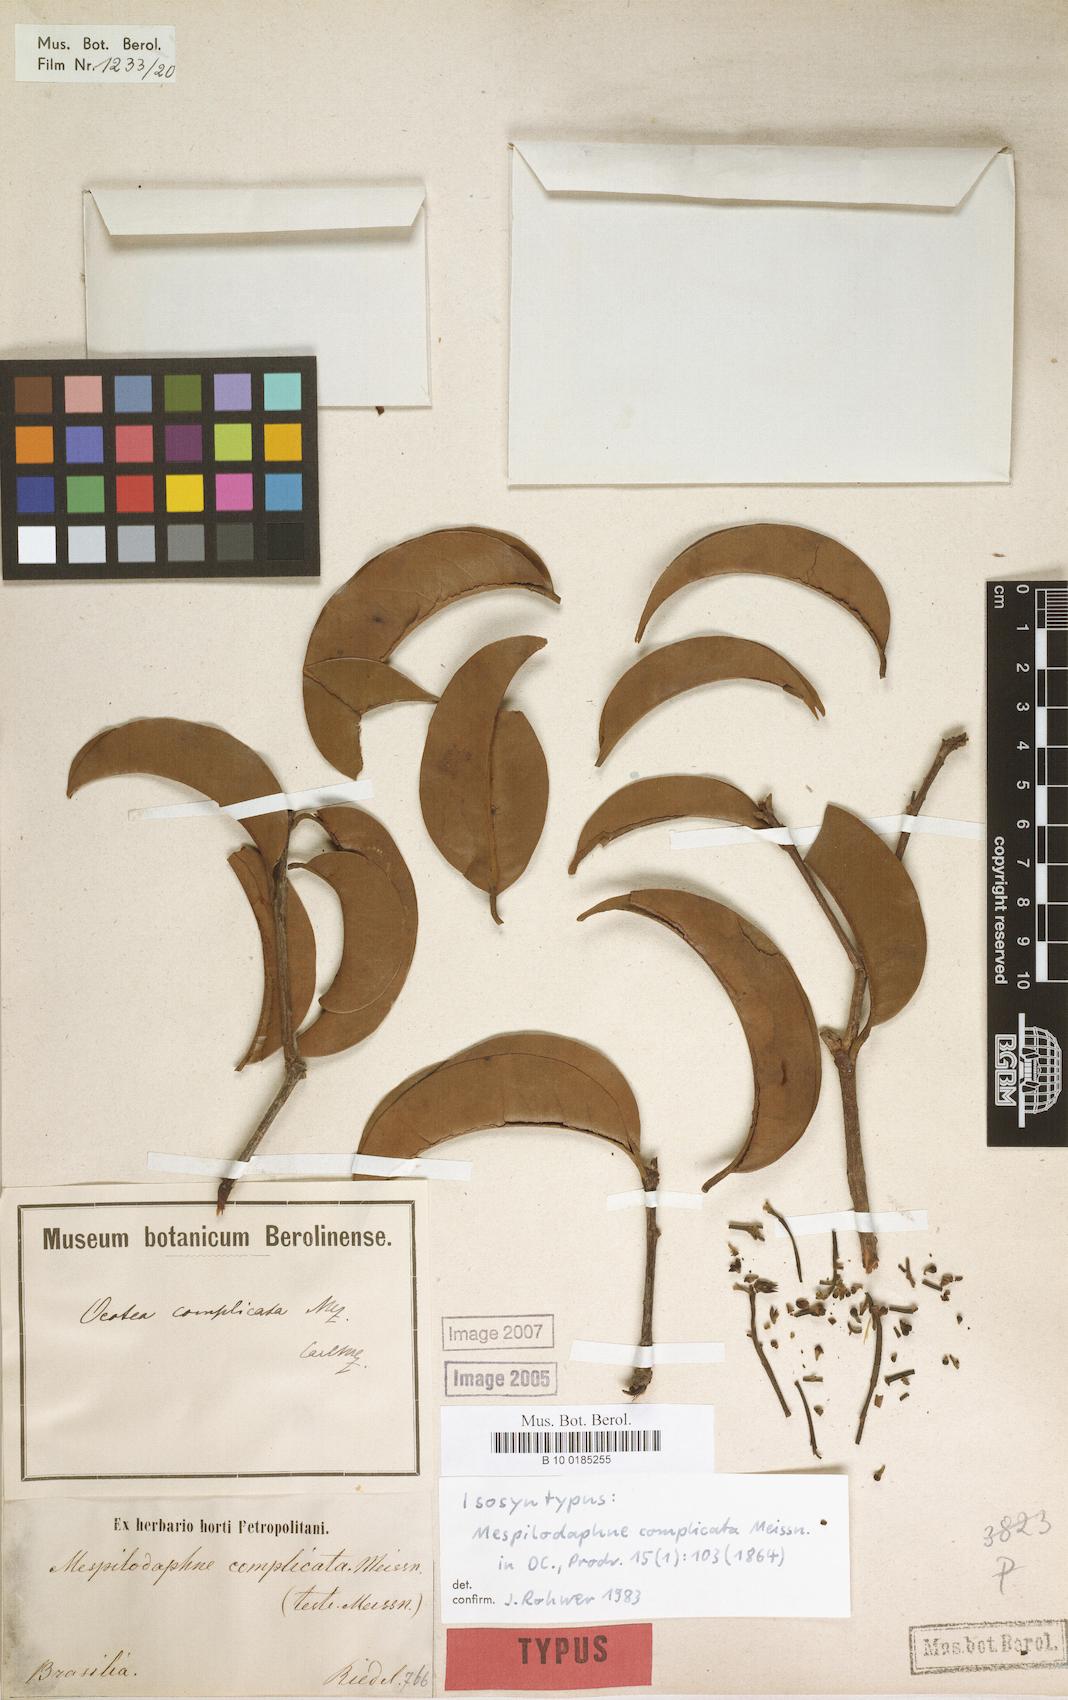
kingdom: Plantae
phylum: Tracheophyta
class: Magnoliopsida
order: Laurales
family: Lauraceae
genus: Mespilodaphne
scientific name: Mespilodaphne complicata
